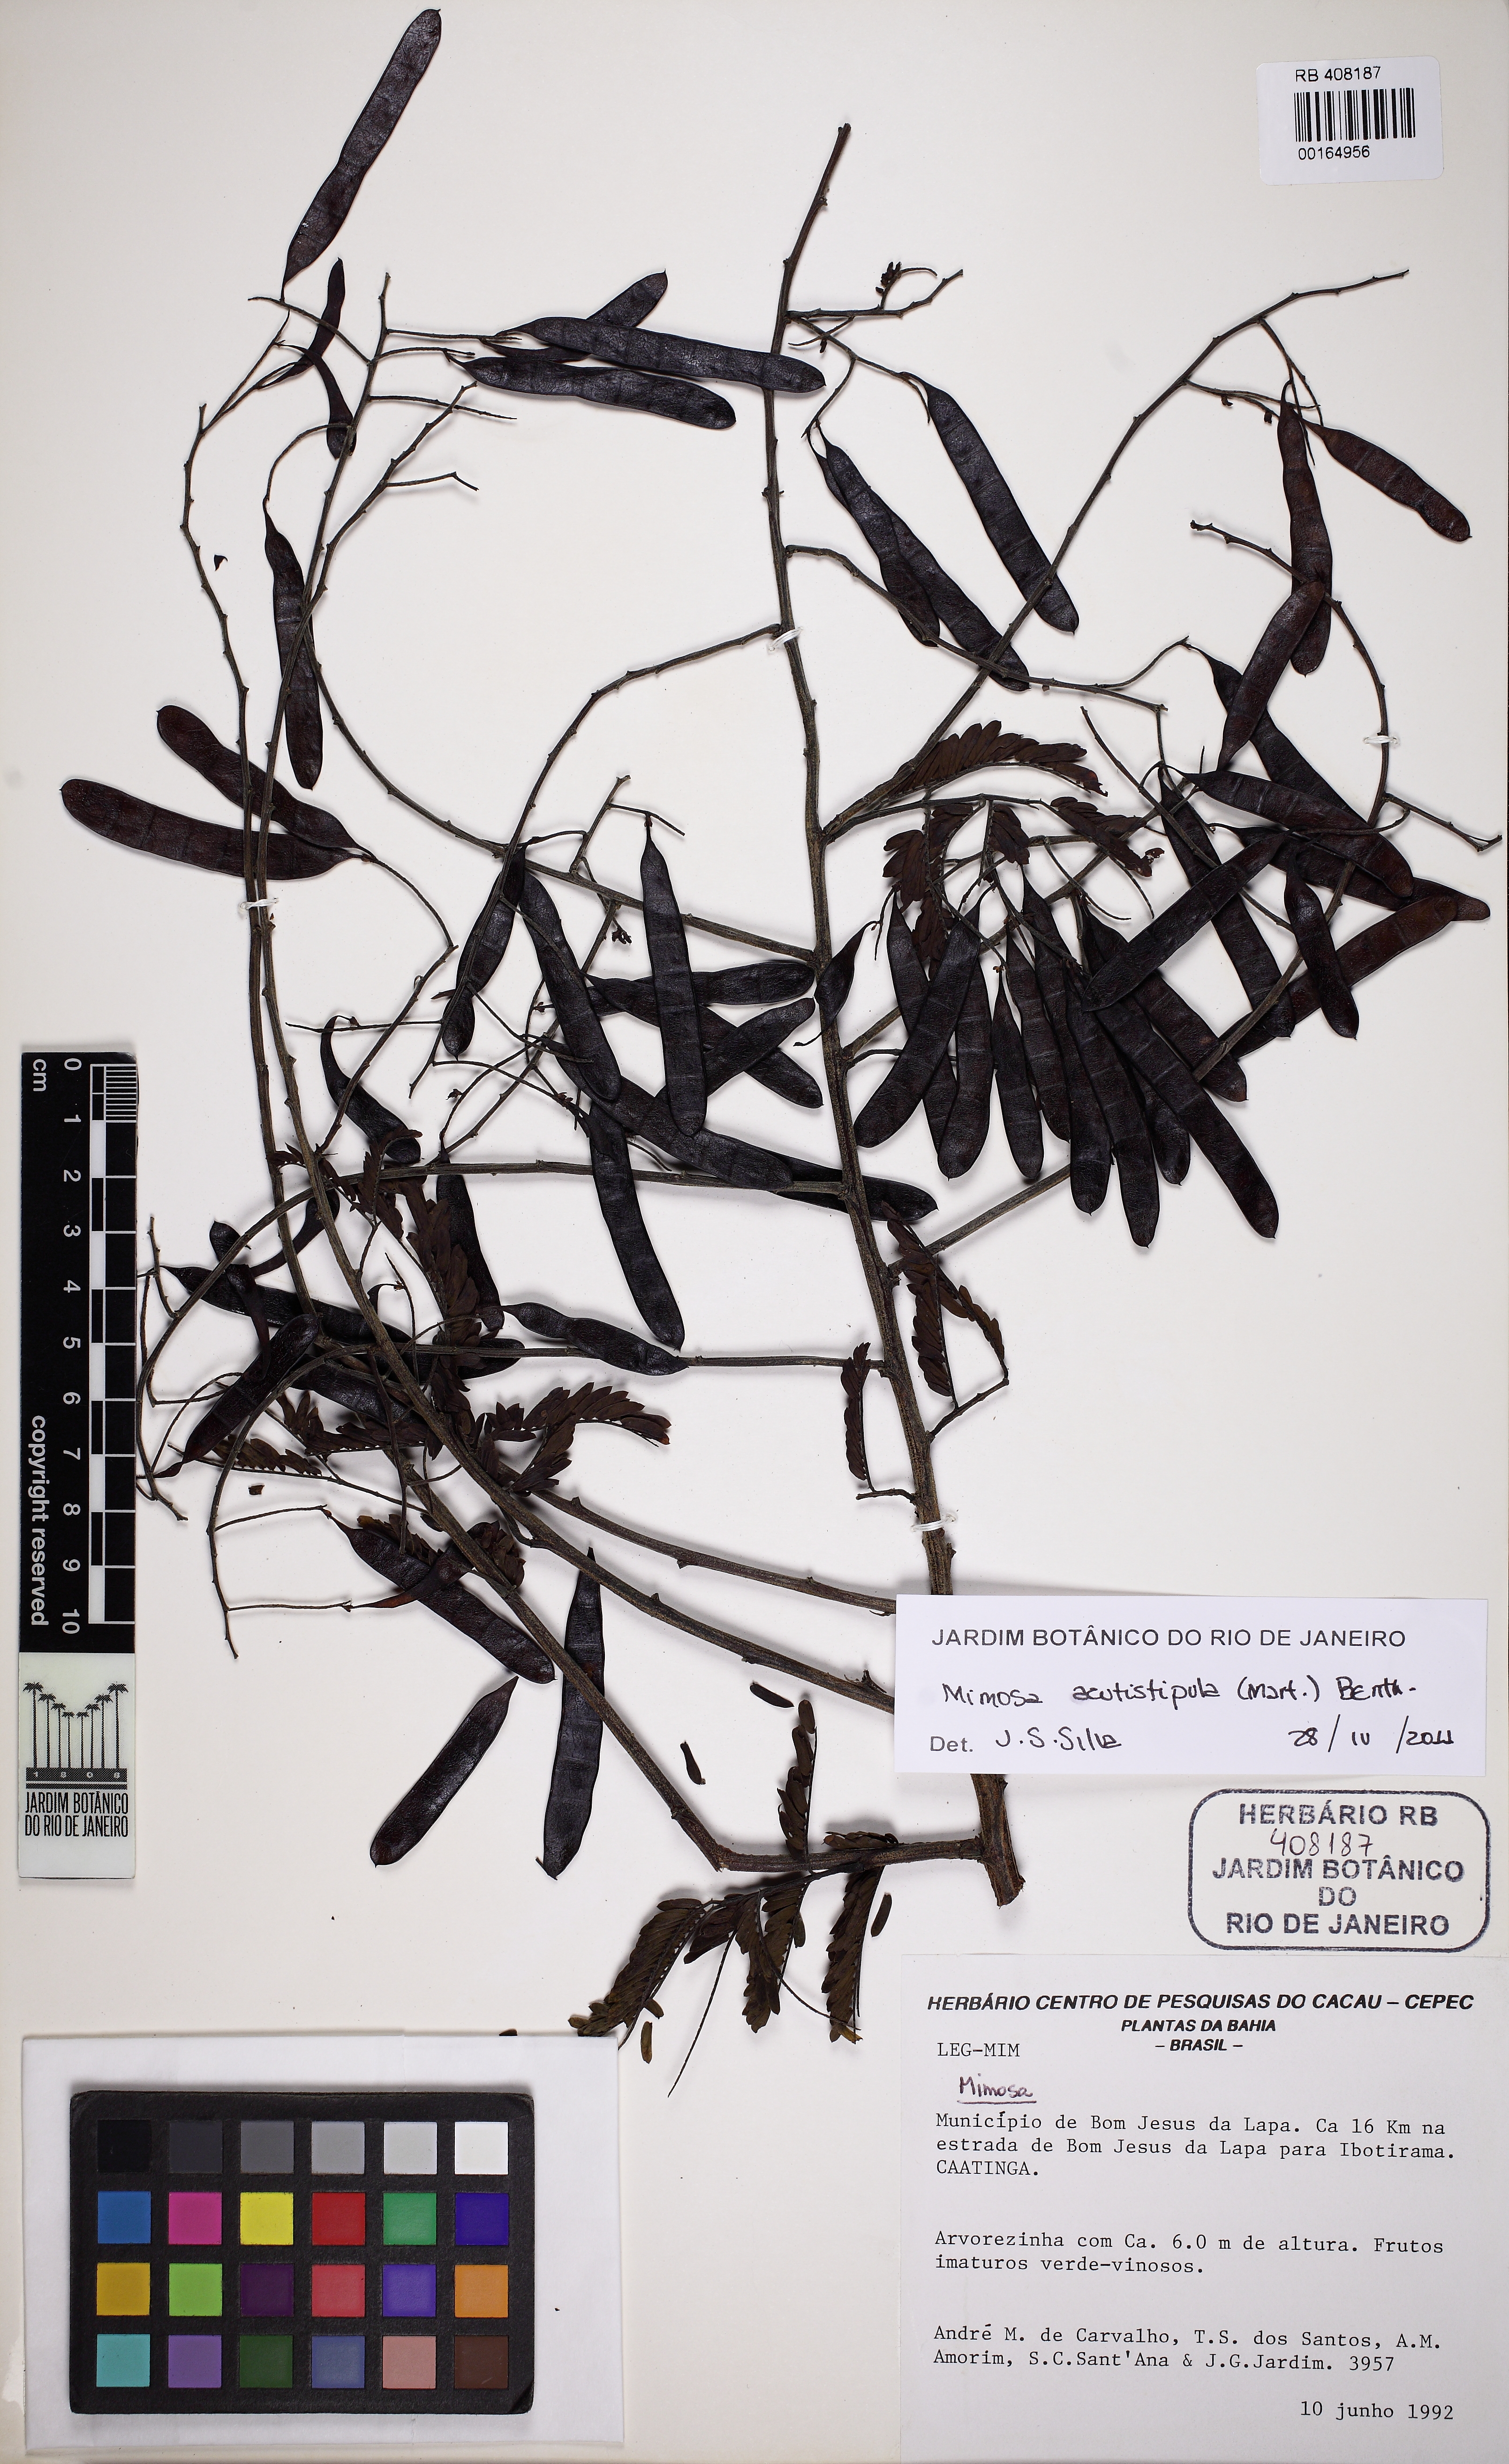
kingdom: Plantae
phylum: Tracheophyta
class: Magnoliopsida
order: Fabales
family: Fabaceae
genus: Mimosa
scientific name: Mimosa acutistipula
